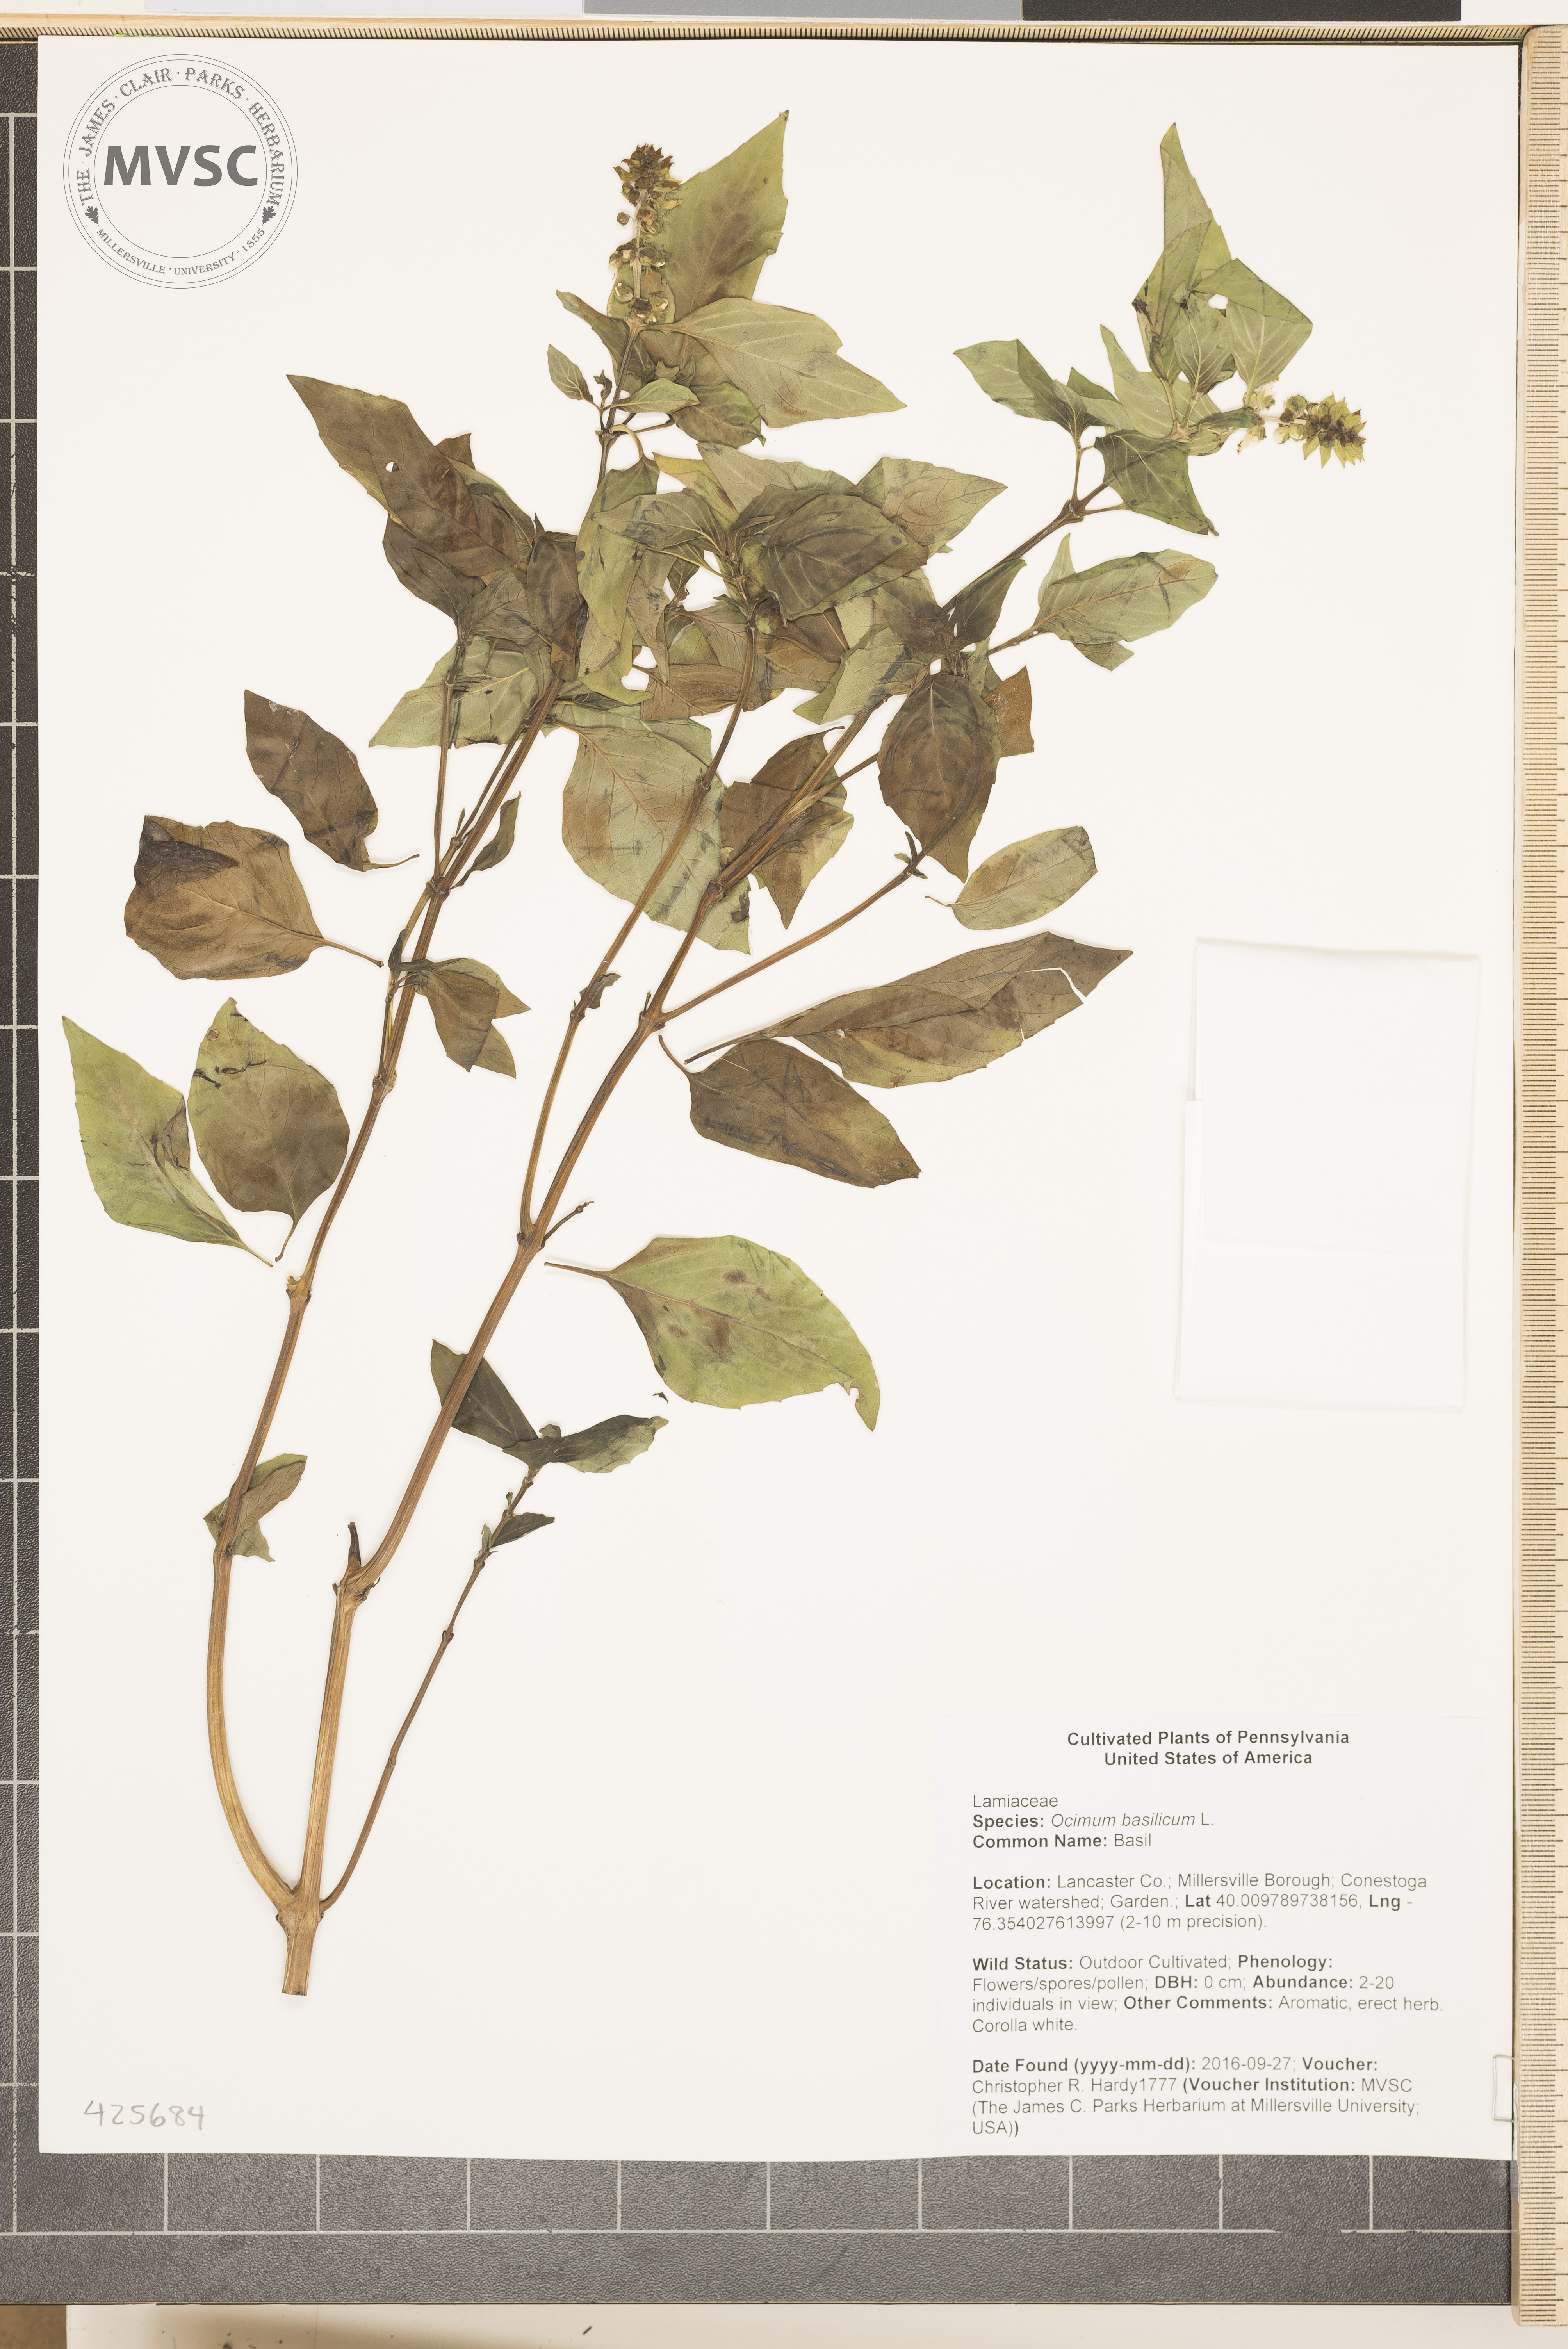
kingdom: Plantae
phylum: Tracheophyta
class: Magnoliopsida
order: Lamiales
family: Lamiaceae
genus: Ocimum
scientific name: Ocimum basilicum
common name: Basil
